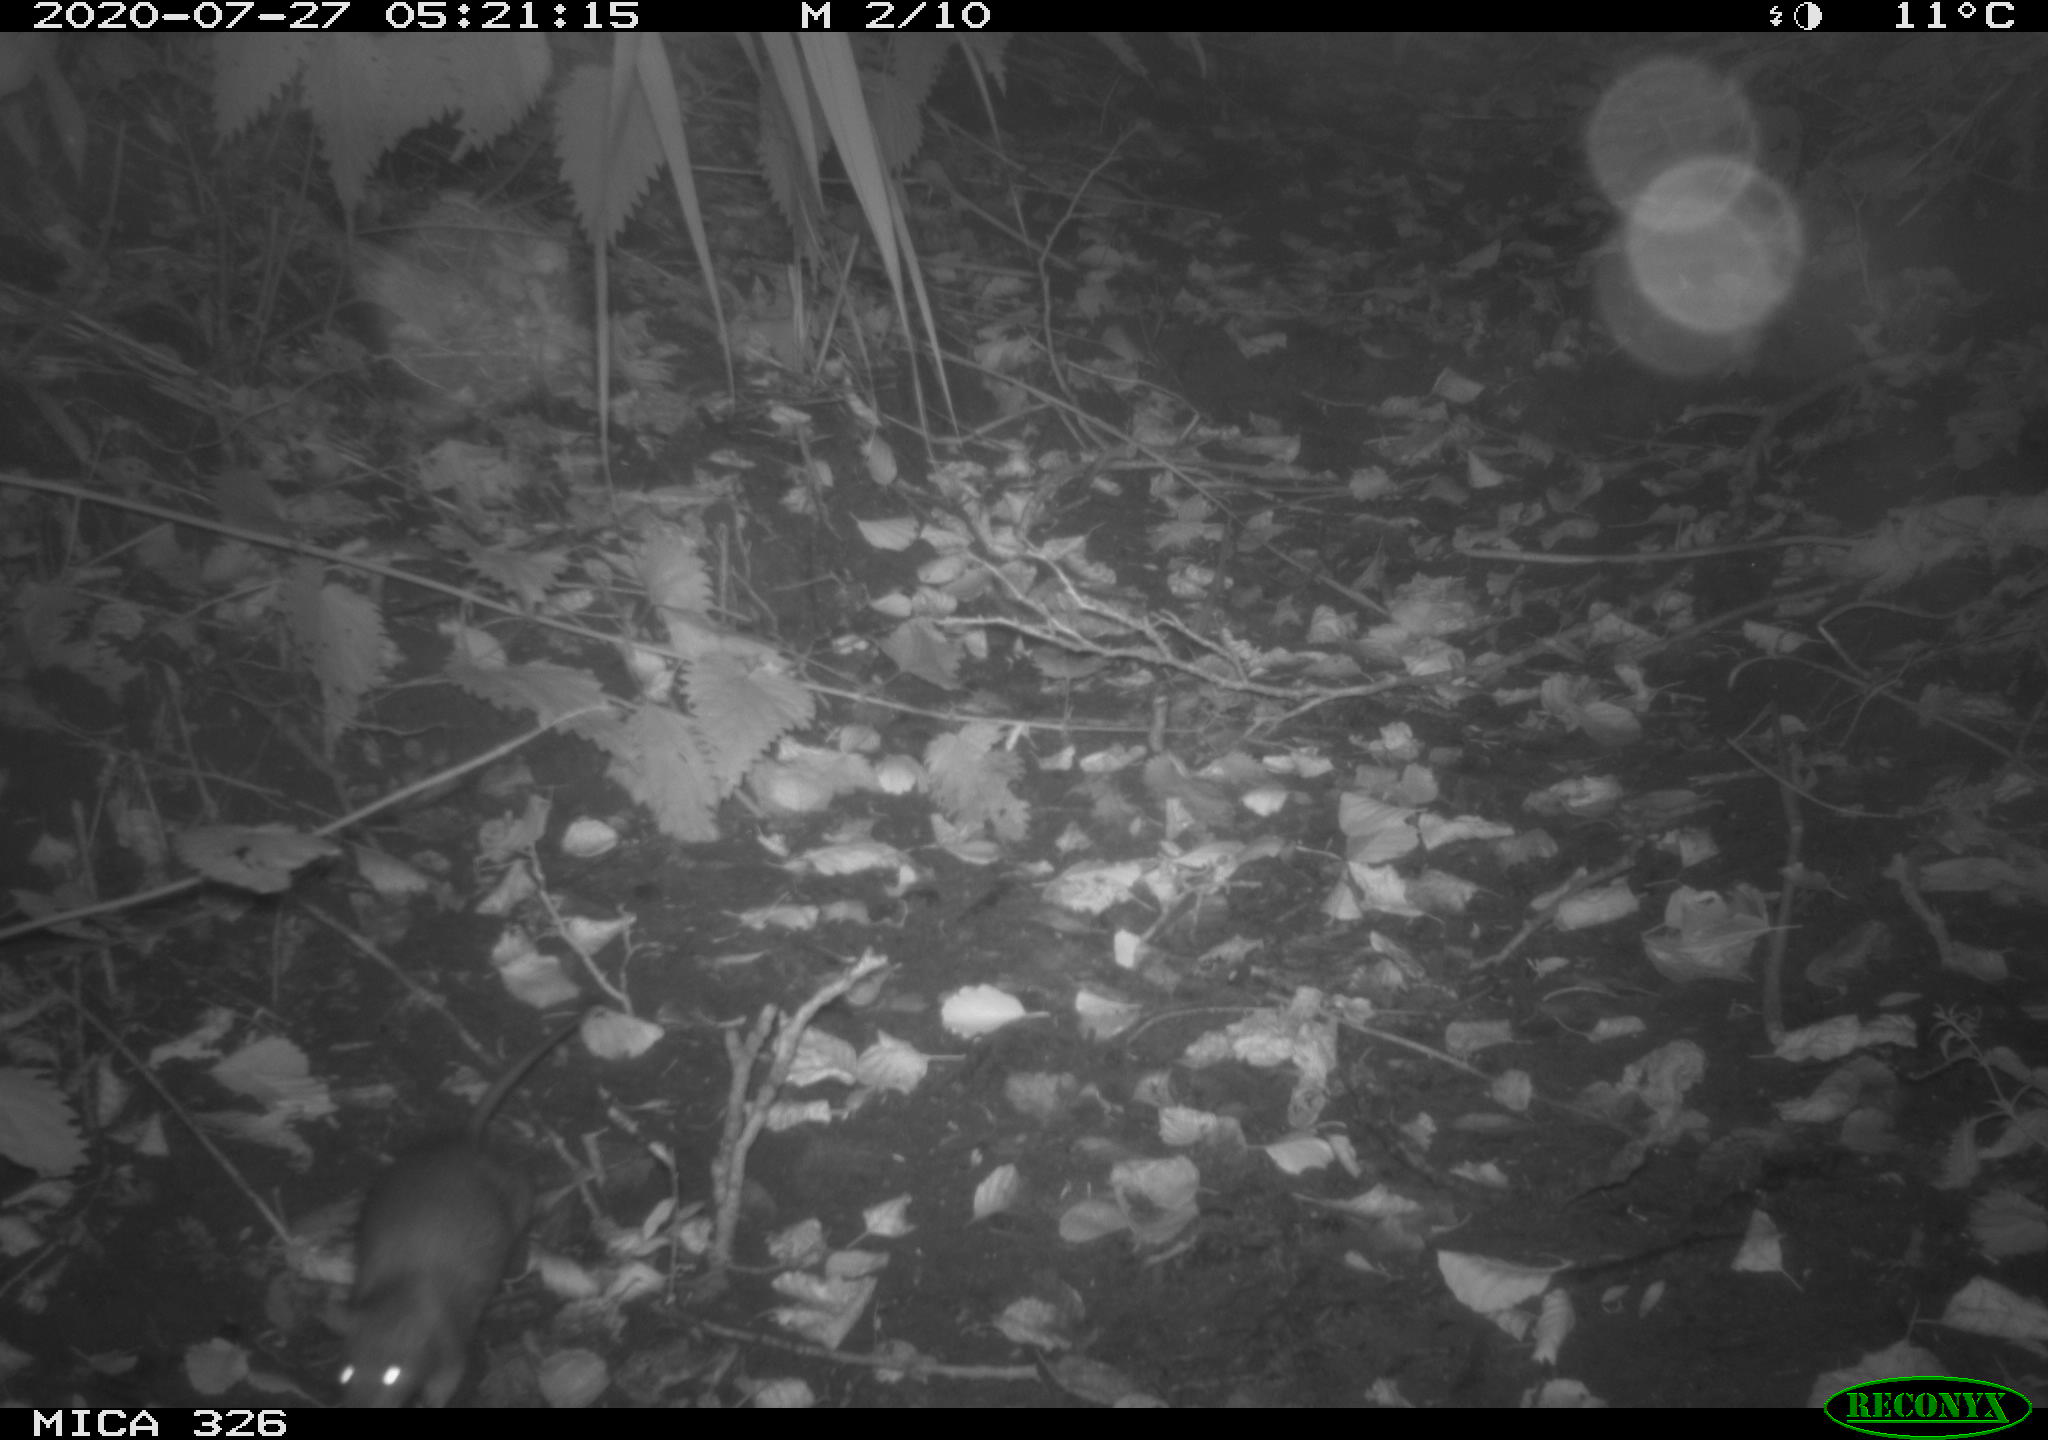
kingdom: Animalia
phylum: Chordata
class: Mammalia
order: Rodentia
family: Muridae
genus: Rattus
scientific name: Rattus norvegicus
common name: Brown rat
